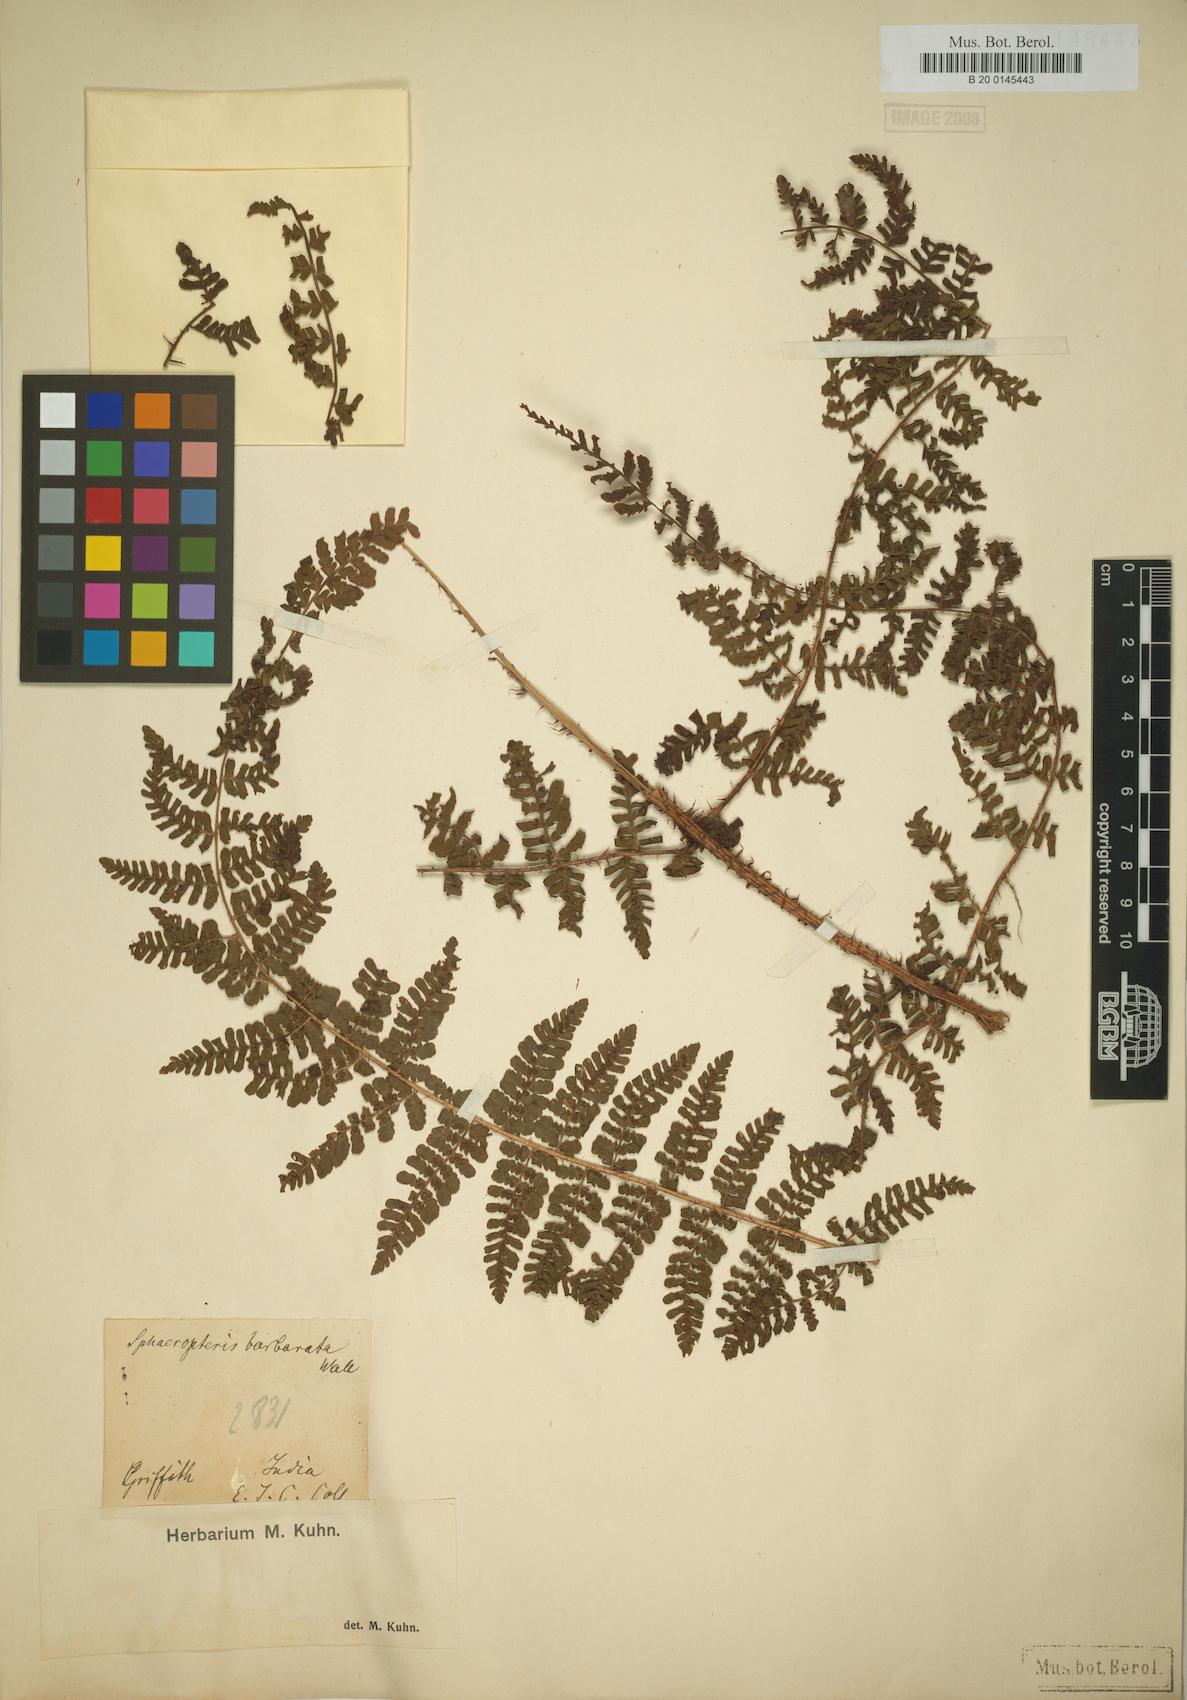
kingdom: Plantae
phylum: Tracheophyta
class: Polypodiopsida
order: Polypodiales
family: Dryopteridaceae
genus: Dryopteris
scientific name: Dryopteris peranema
